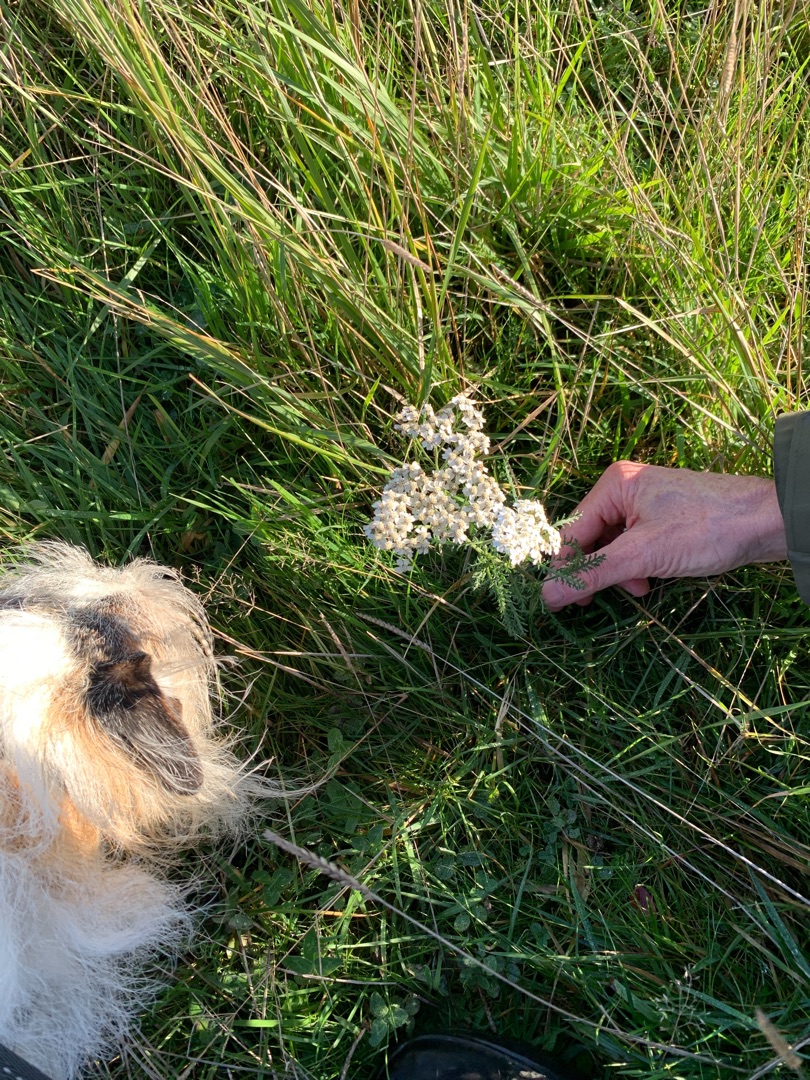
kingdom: Plantae
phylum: Tracheophyta
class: Magnoliopsida
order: Asterales
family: Asteraceae
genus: Achillea
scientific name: Achillea millefolium
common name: Almindelig røllike
